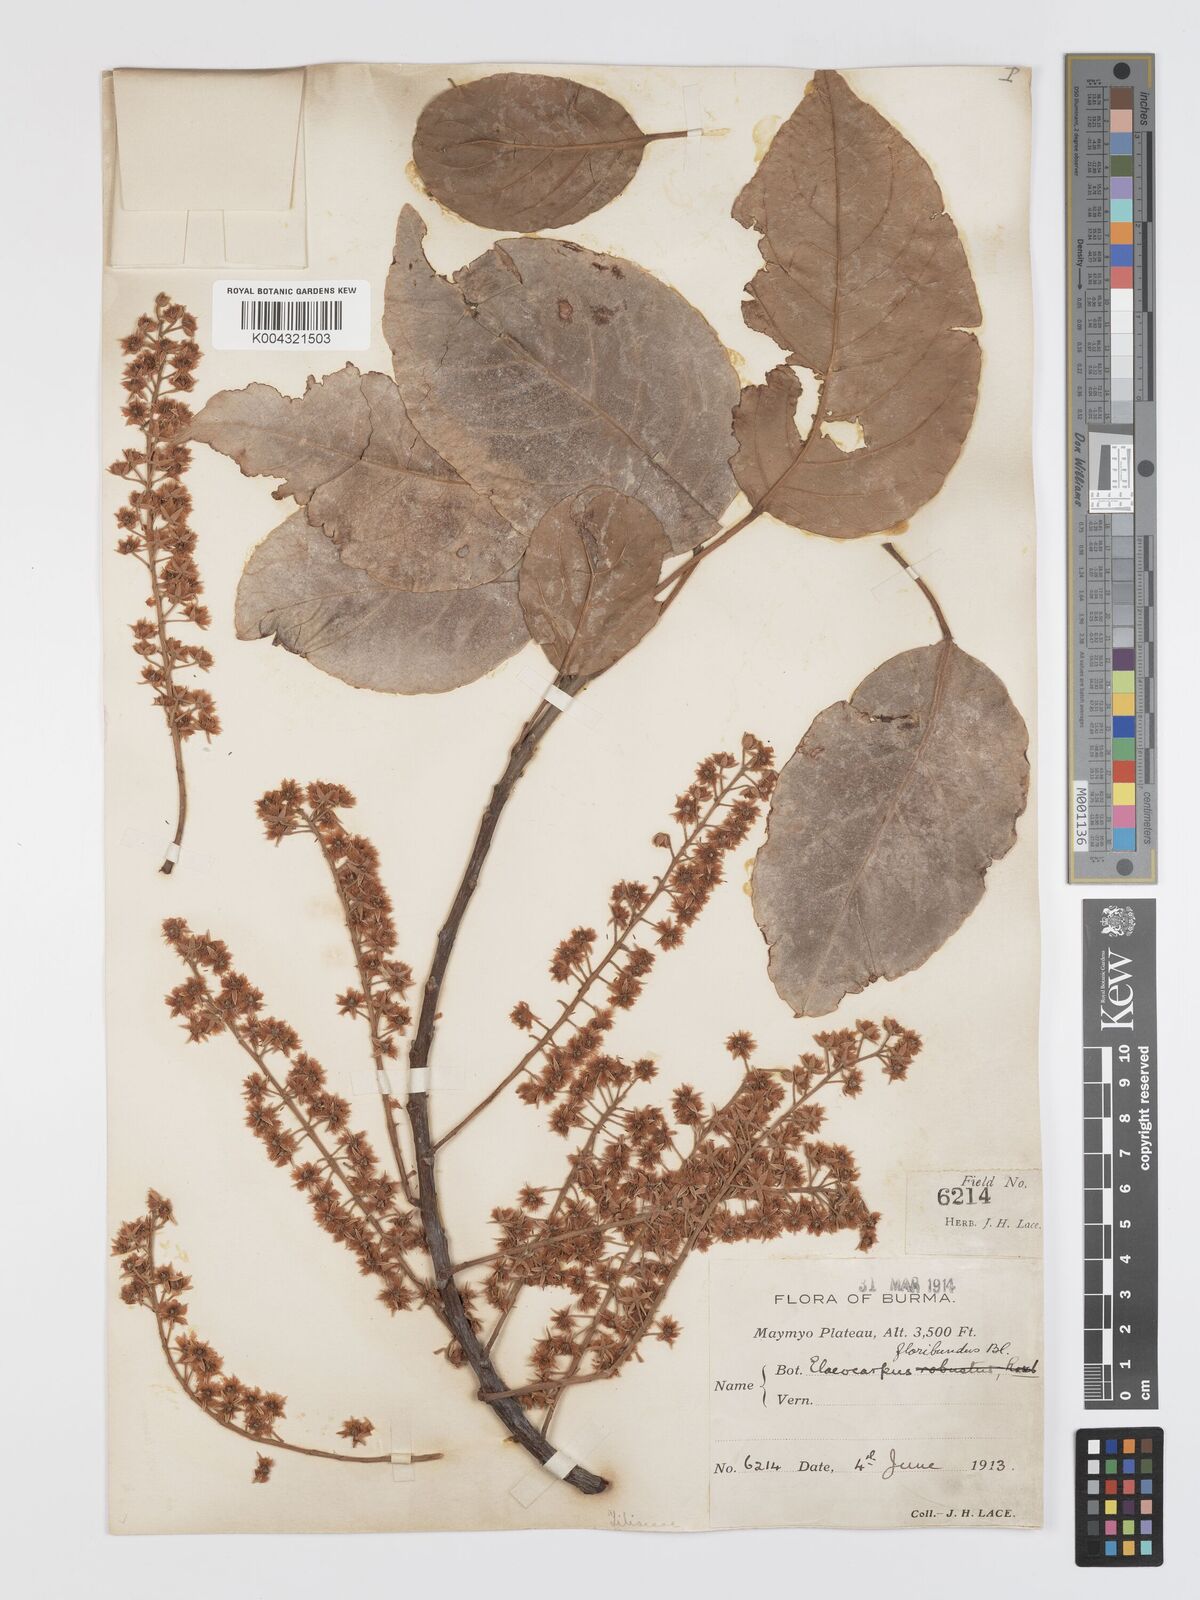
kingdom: Plantae
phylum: Tracheophyta
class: Magnoliopsida
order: Oxalidales
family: Elaeocarpaceae
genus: Elaeocarpus
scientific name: Elaeocarpus floribundus
